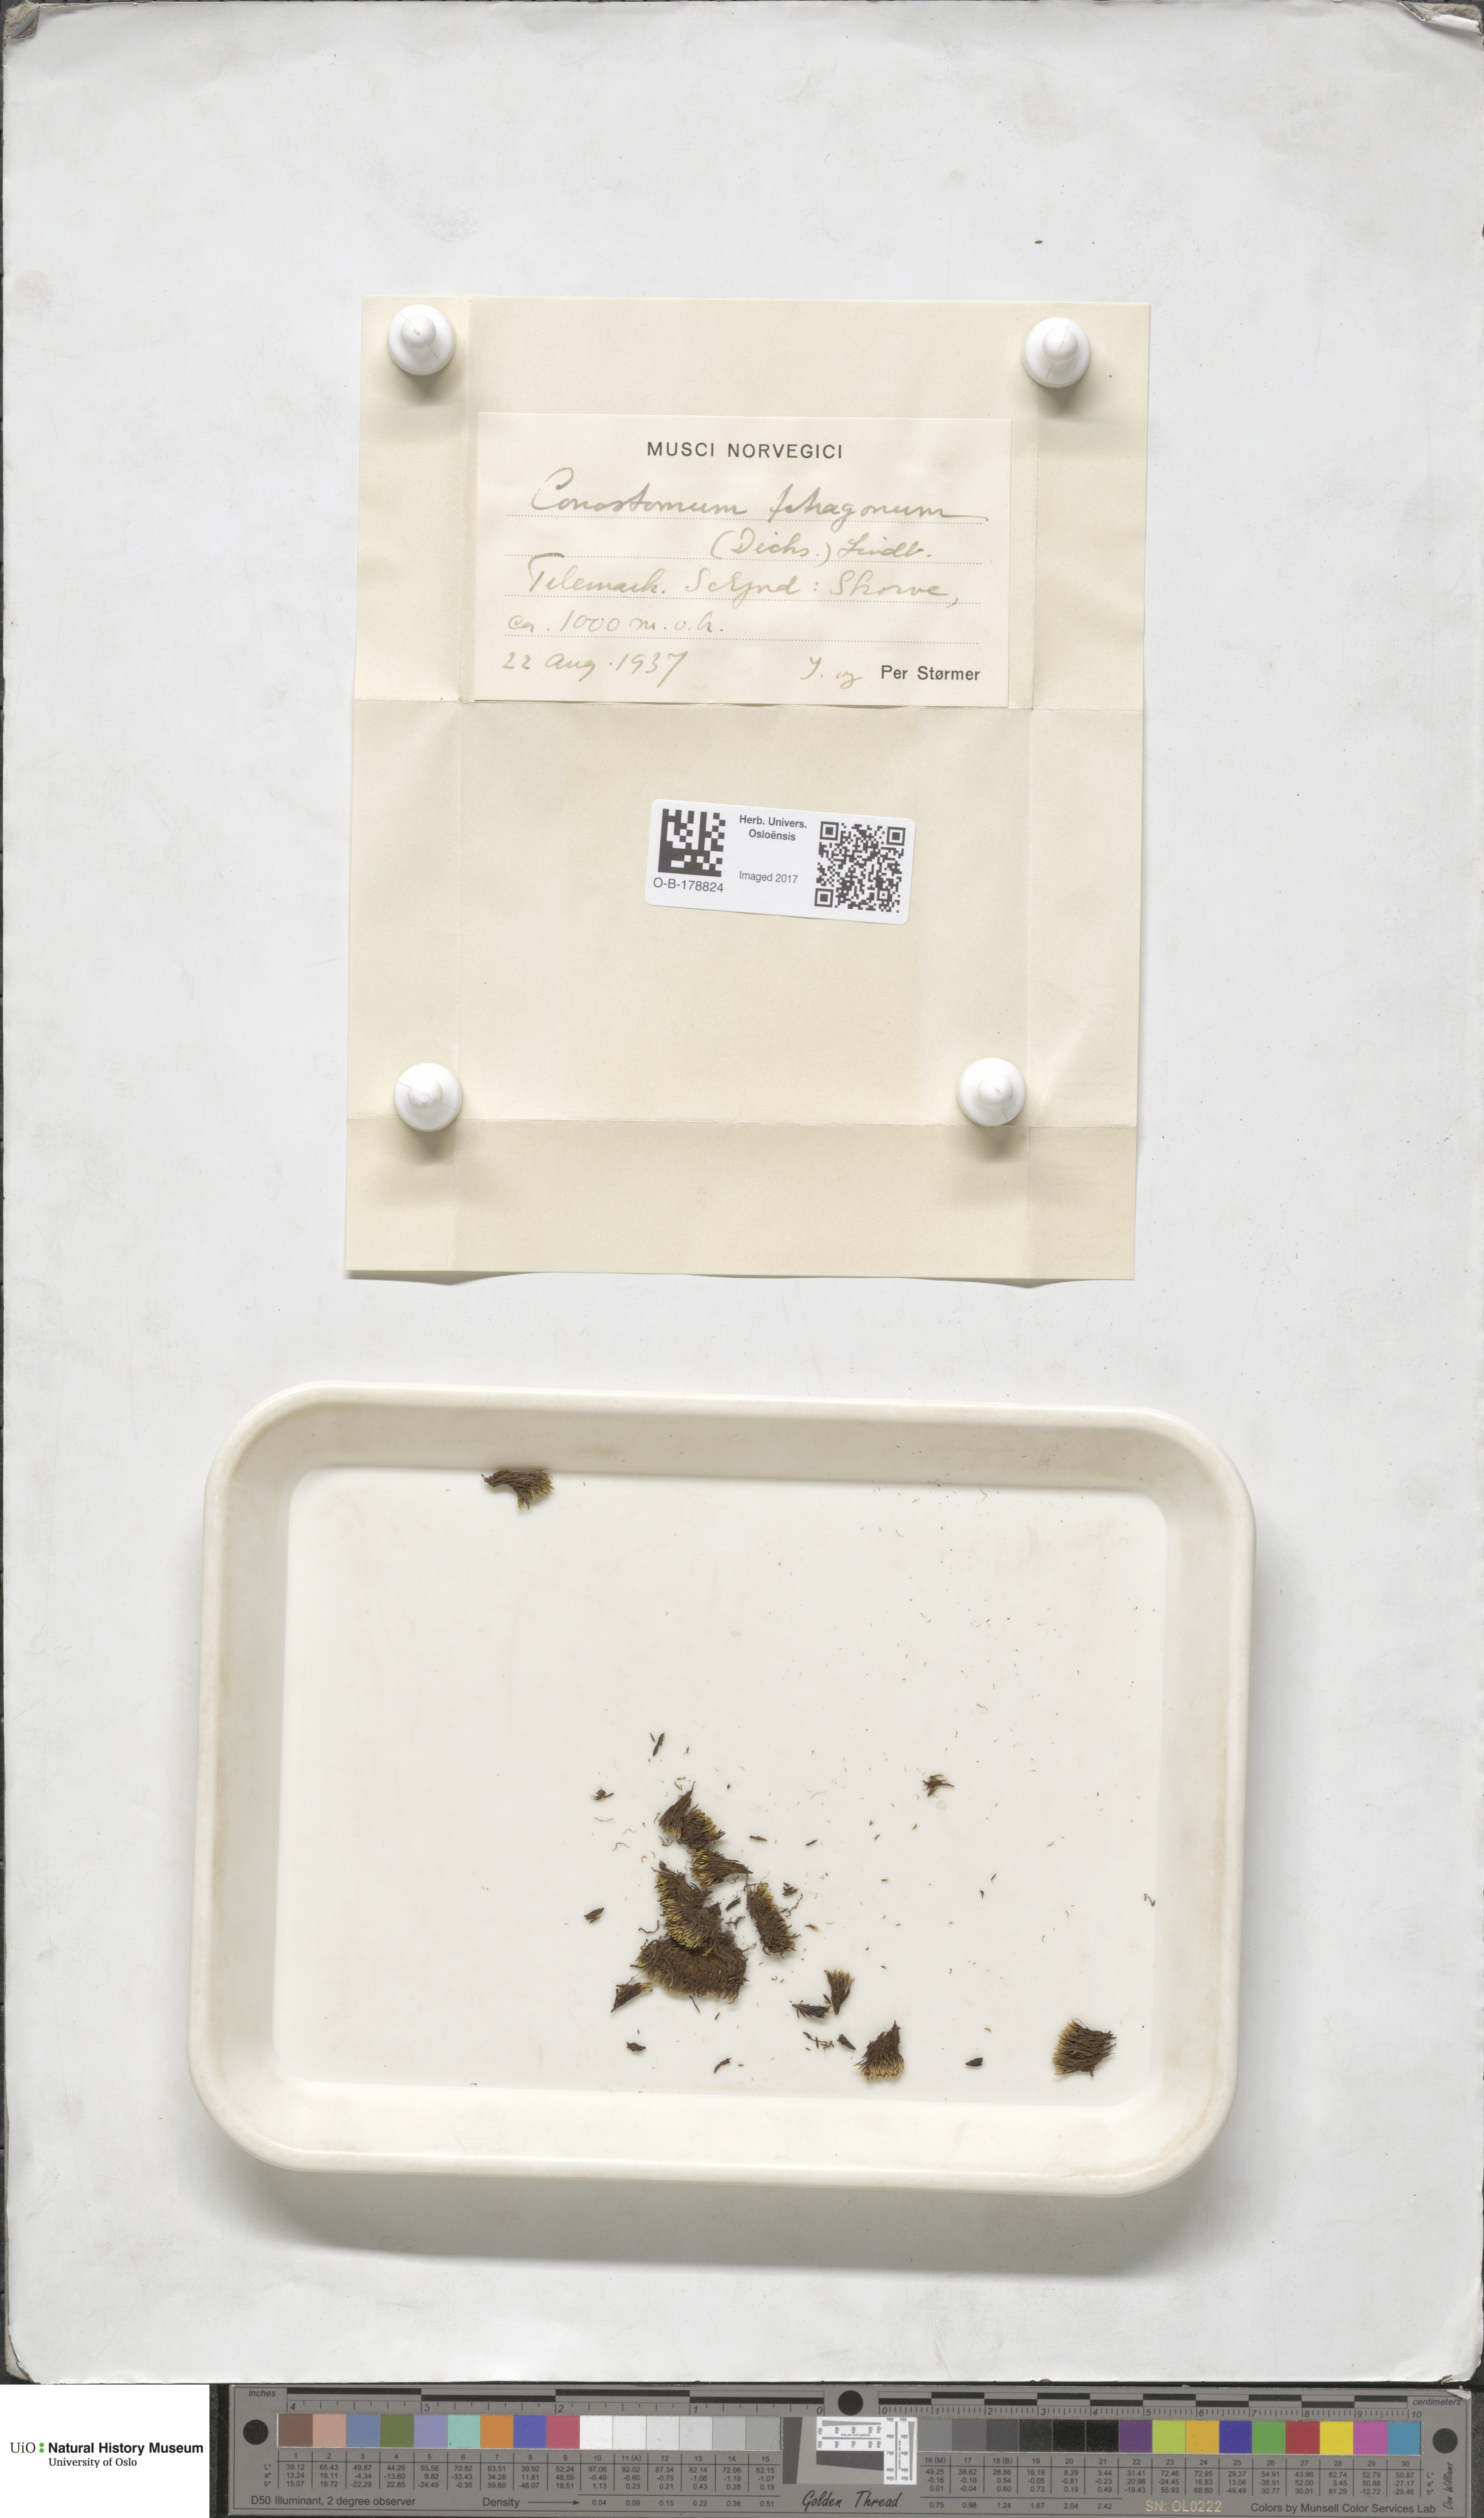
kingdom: Plantae
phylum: Bryophyta
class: Bryopsida
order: Bartramiales
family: Bartramiaceae
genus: Conostomum
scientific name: Conostomum tetragonum
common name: Helmet moss
